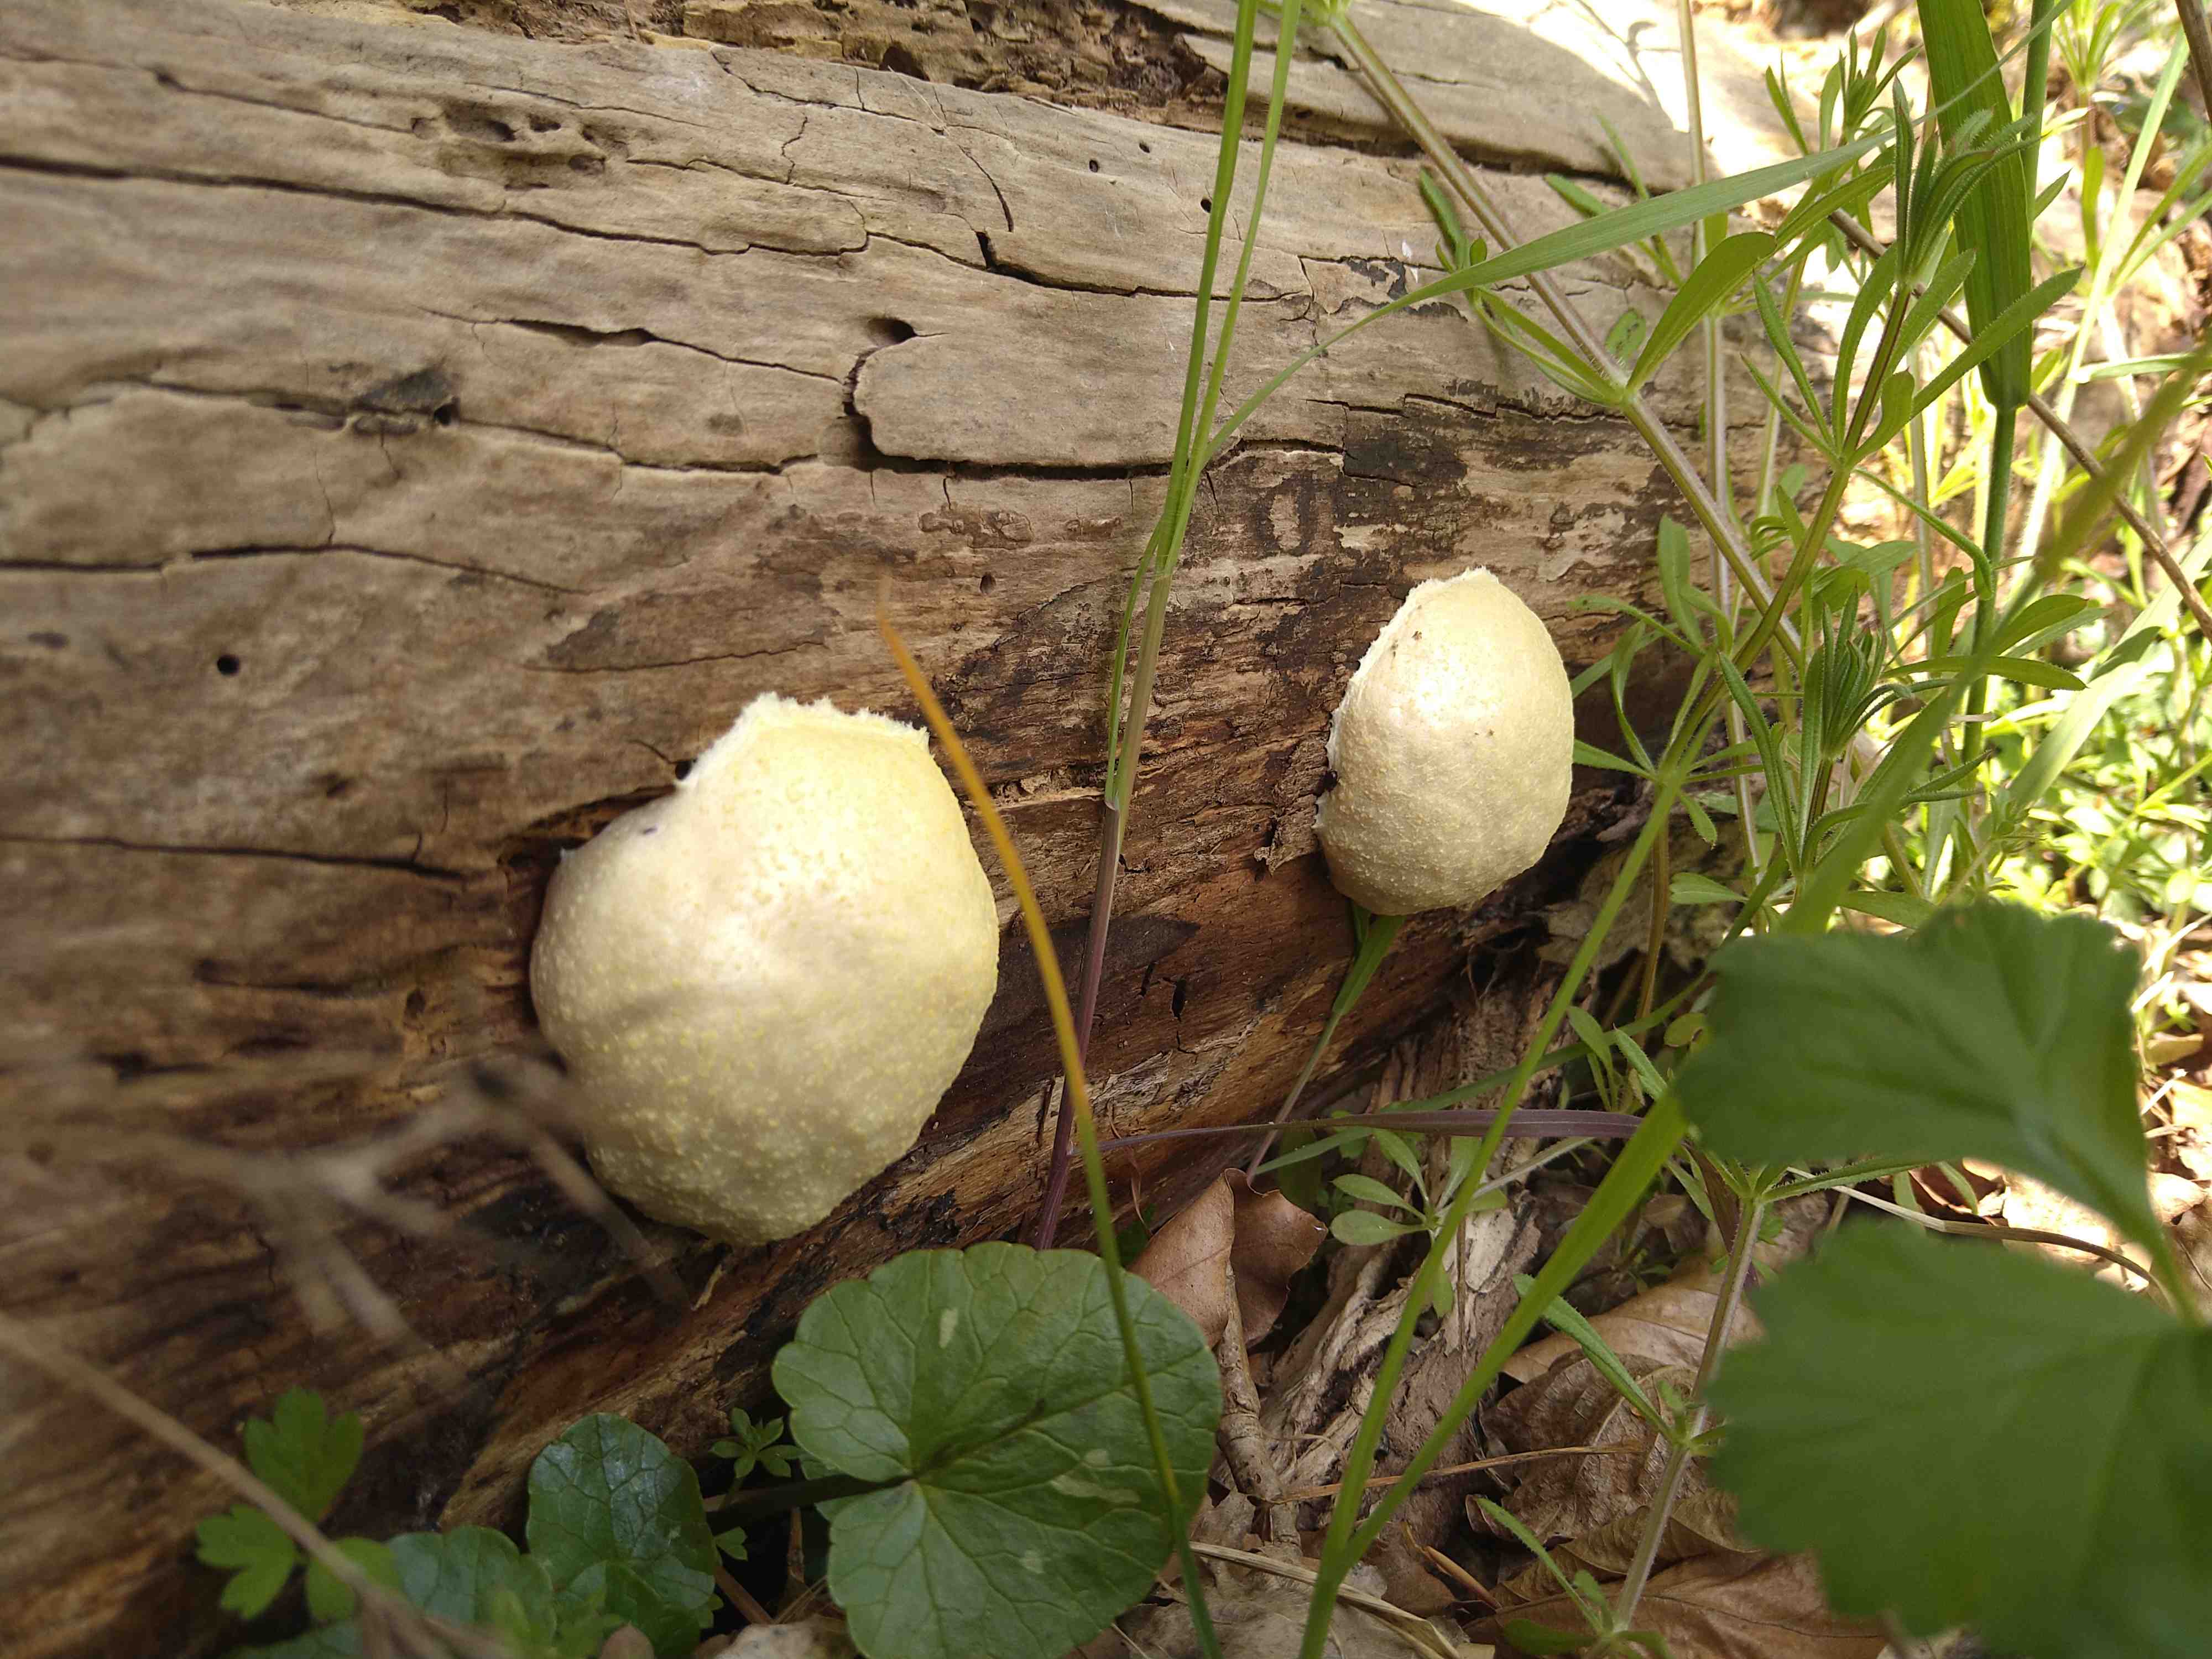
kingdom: Protozoa
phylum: Mycetozoa
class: Myxomycetes
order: Cribrariales
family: Tubiferaceae
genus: Reticularia
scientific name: Reticularia lycoperdon
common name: skinnende støvpude
